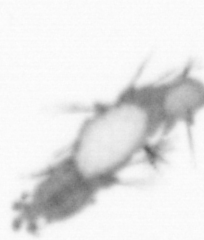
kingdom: Animalia
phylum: Annelida
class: Polychaeta
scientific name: Polychaeta
